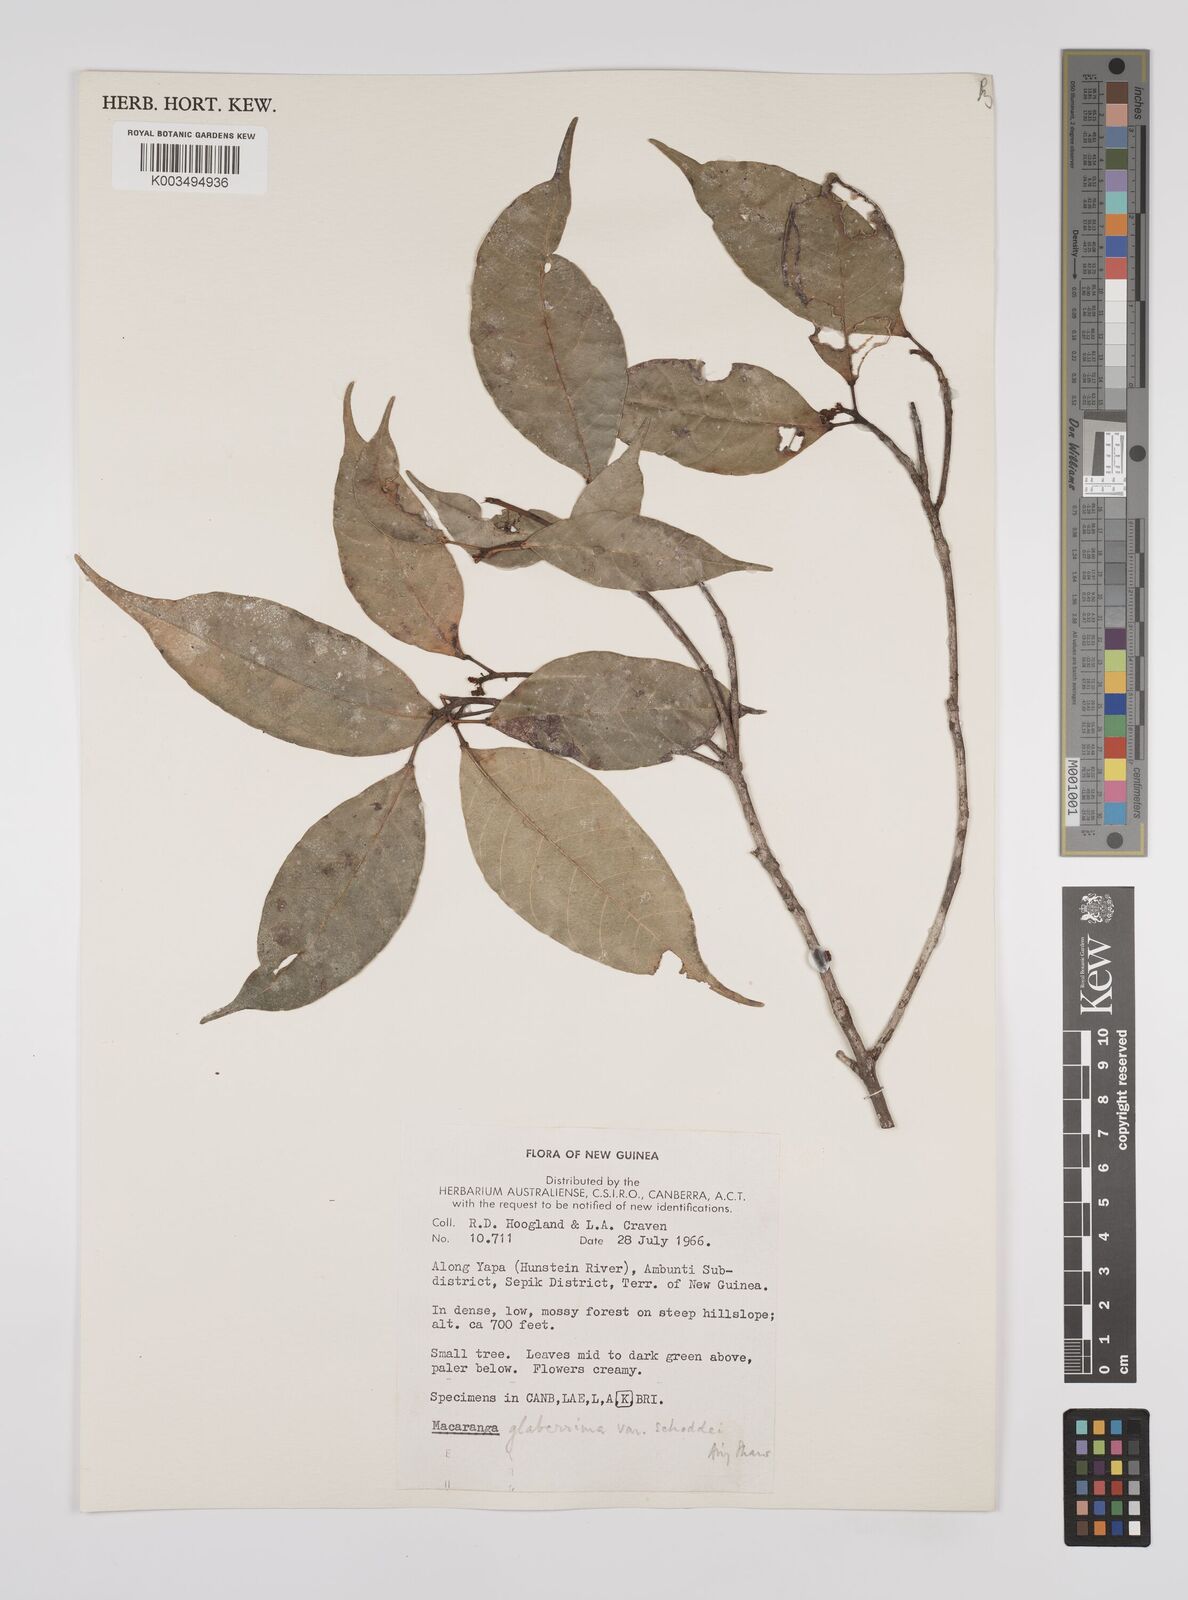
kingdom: Plantae
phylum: Tracheophyta
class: Magnoliopsida
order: Malpighiales
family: Euphorbiaceae
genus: Macaranga
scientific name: Macaranga glaberrima
